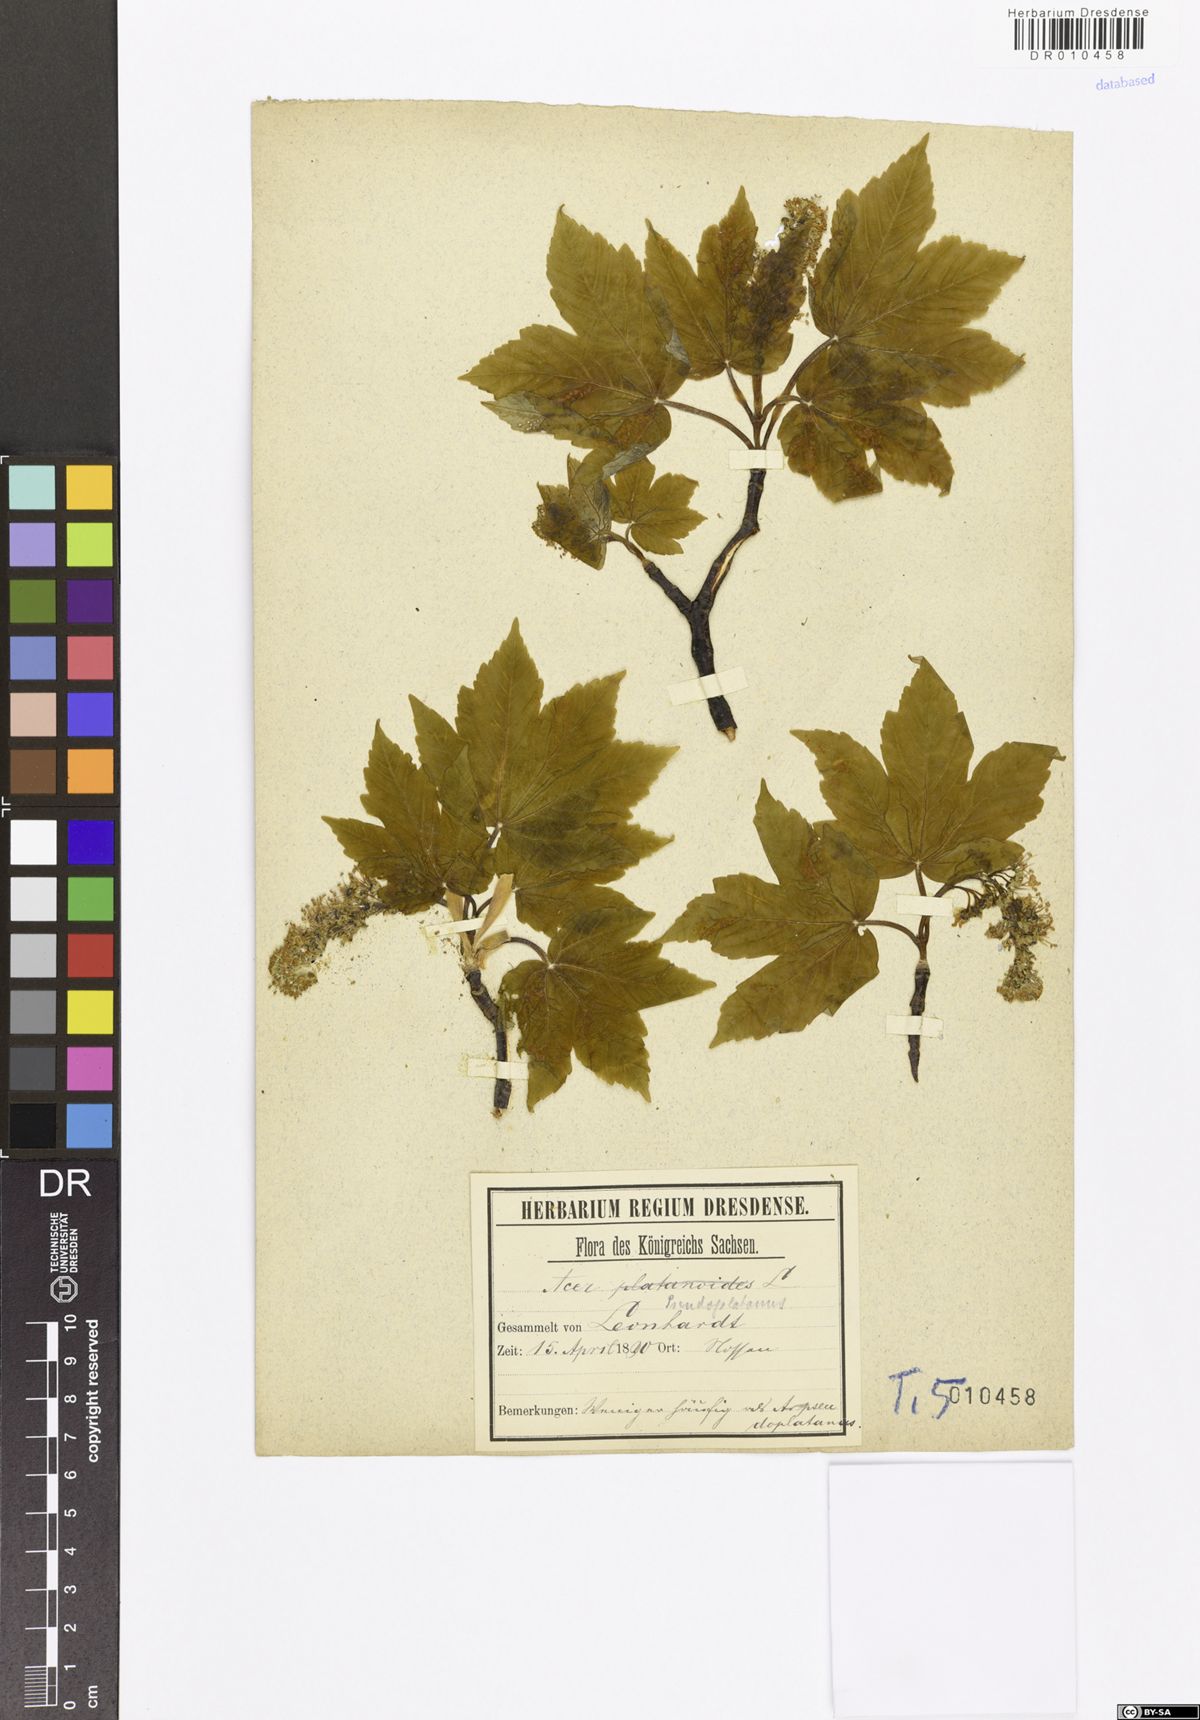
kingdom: Plantae
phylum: Tracheophyta
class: Magnoliopsida
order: Sapindales
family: Sapindaceae
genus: Acer
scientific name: Acer pseudoplatanus
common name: Sycamore
